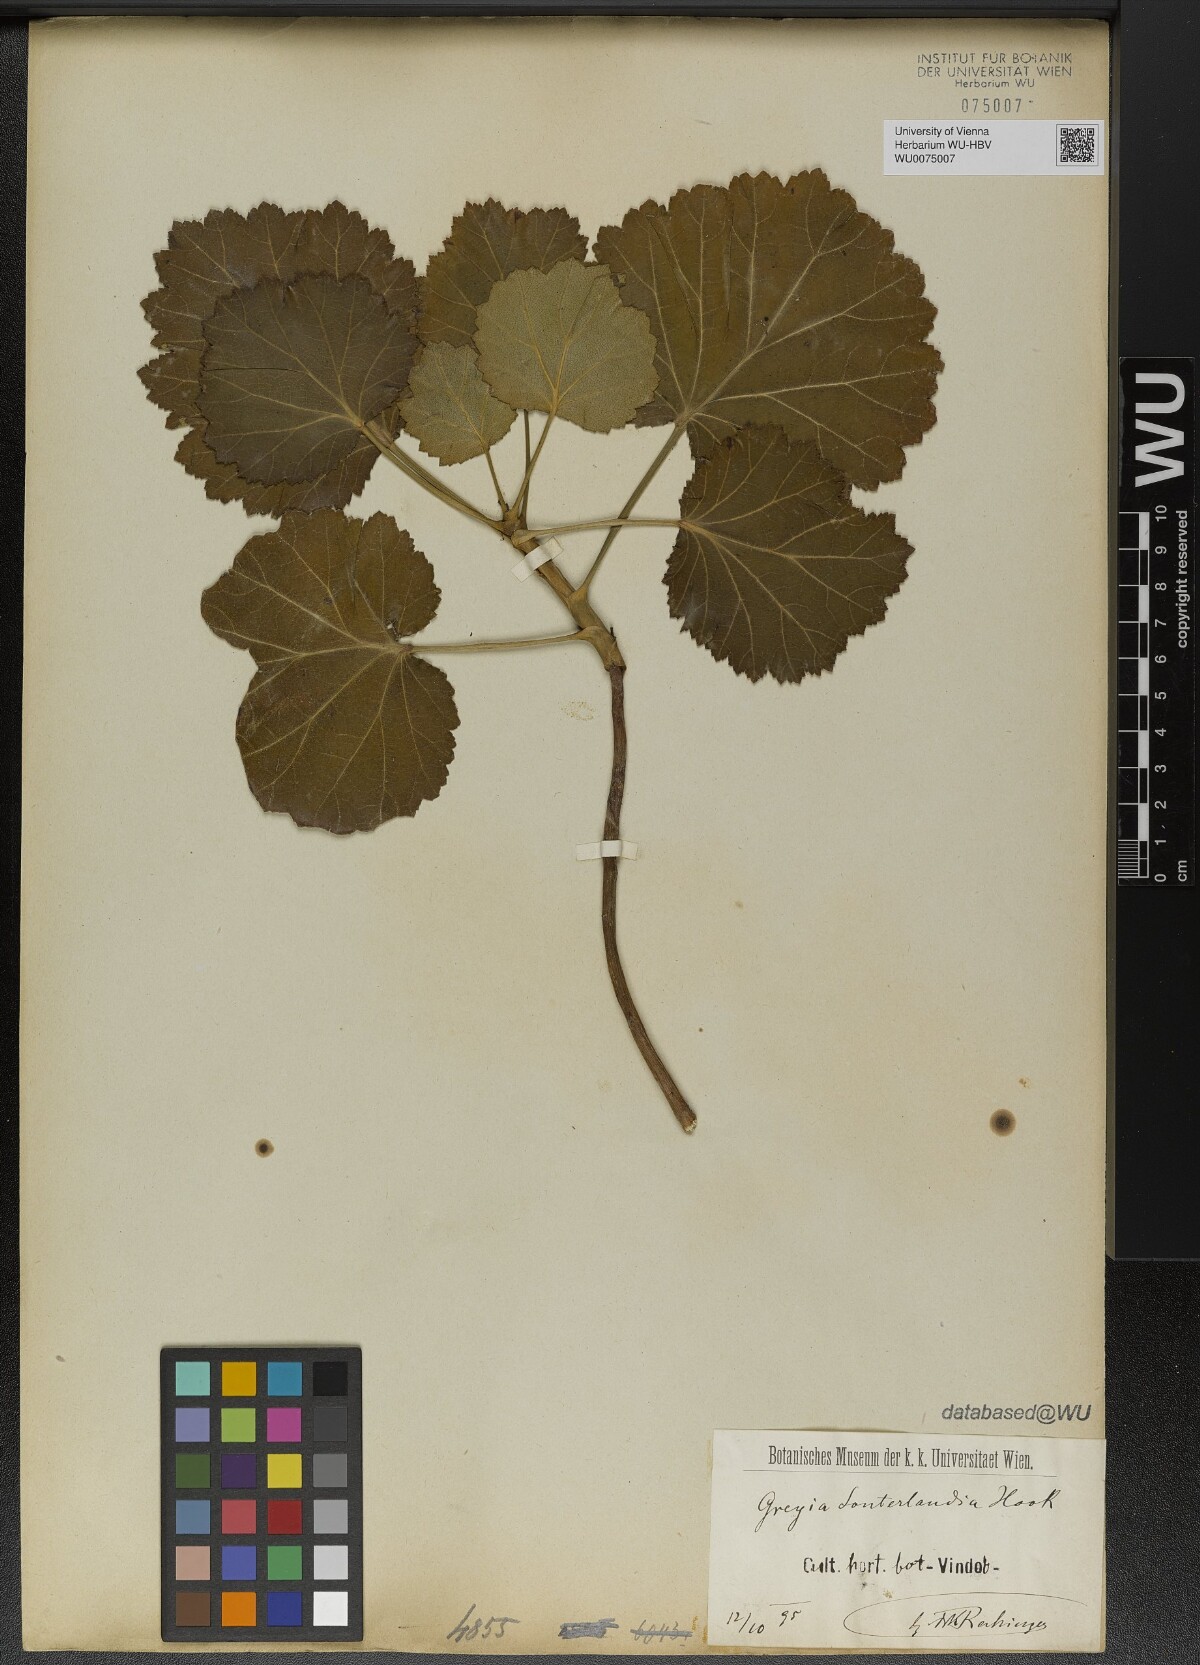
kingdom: Plantae
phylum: Tracheophyta
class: Magnoliopsida
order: Geraniales
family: Francoaceae
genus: Greyia
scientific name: Greyia sutherlandii
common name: Glossy bottlebrush
